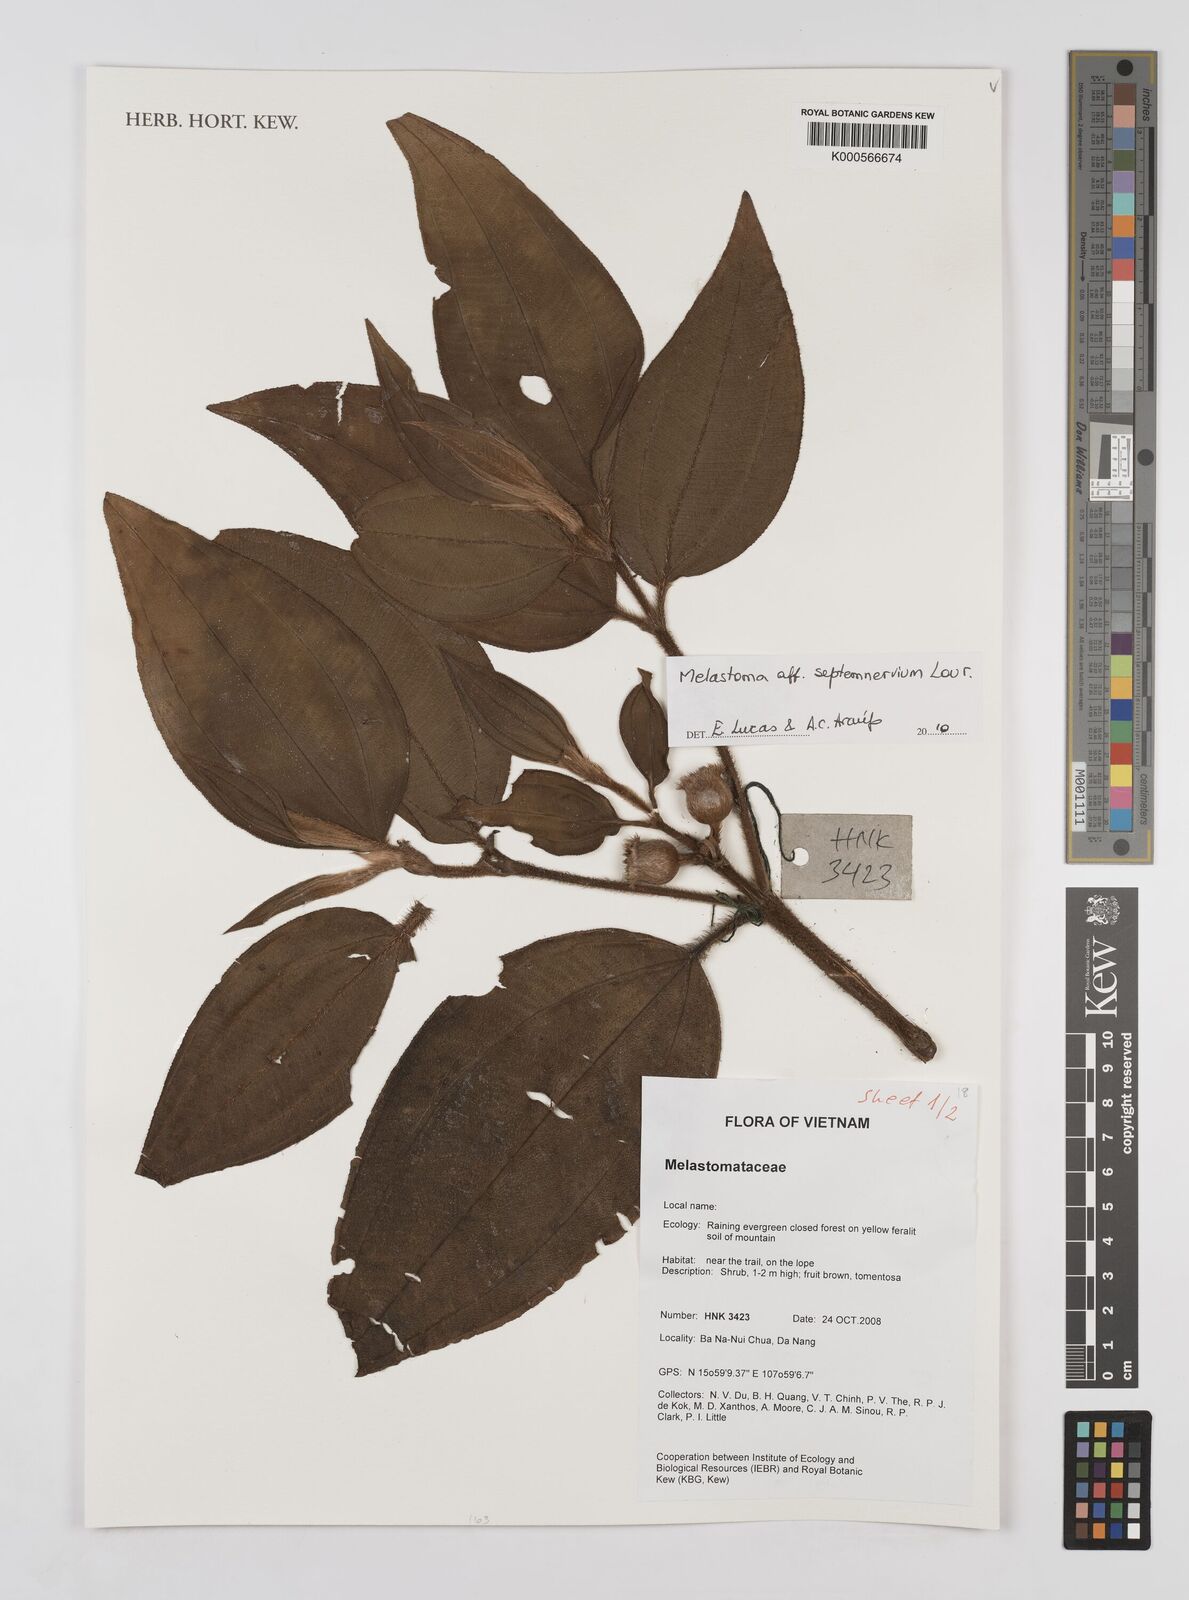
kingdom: Plantae
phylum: Tracheophyta
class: Magnoliopsida
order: Myrtales
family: Melastomataceae
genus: Melastoma
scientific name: Melastoma malabathricum
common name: Indian-rhododendron
